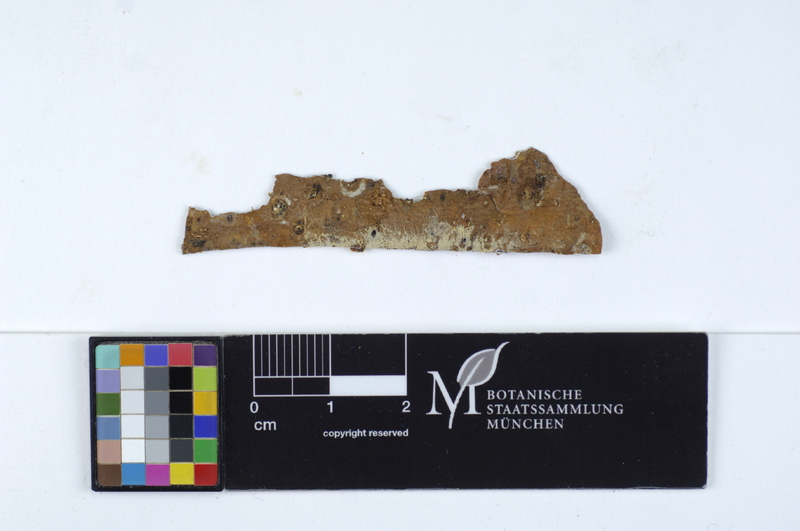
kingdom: Fungi
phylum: Basidiomycota
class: Agaricomycetes
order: Agaricales
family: Stephanosporaceae
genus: Cristinia
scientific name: Cristinia helvetica
